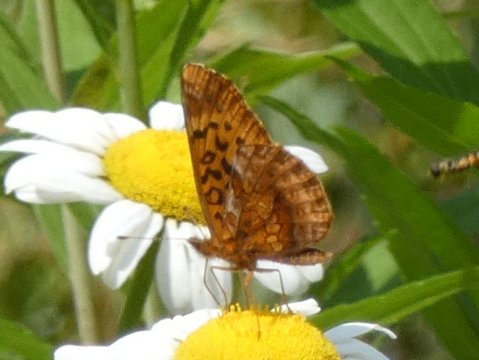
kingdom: Animalia
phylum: Arthropoda
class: Insecta
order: Lepidoptera
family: Nymphalidae
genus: Clossiana
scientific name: Clossiana toddi
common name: Meadow Fritillary
